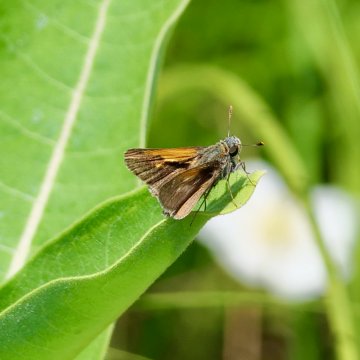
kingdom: Animalia
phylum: Arthropoda
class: Insecta
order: Lepidoptera
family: Hesperiidae
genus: Polites
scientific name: Polites themistocles
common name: Tawny-edged Skipper
